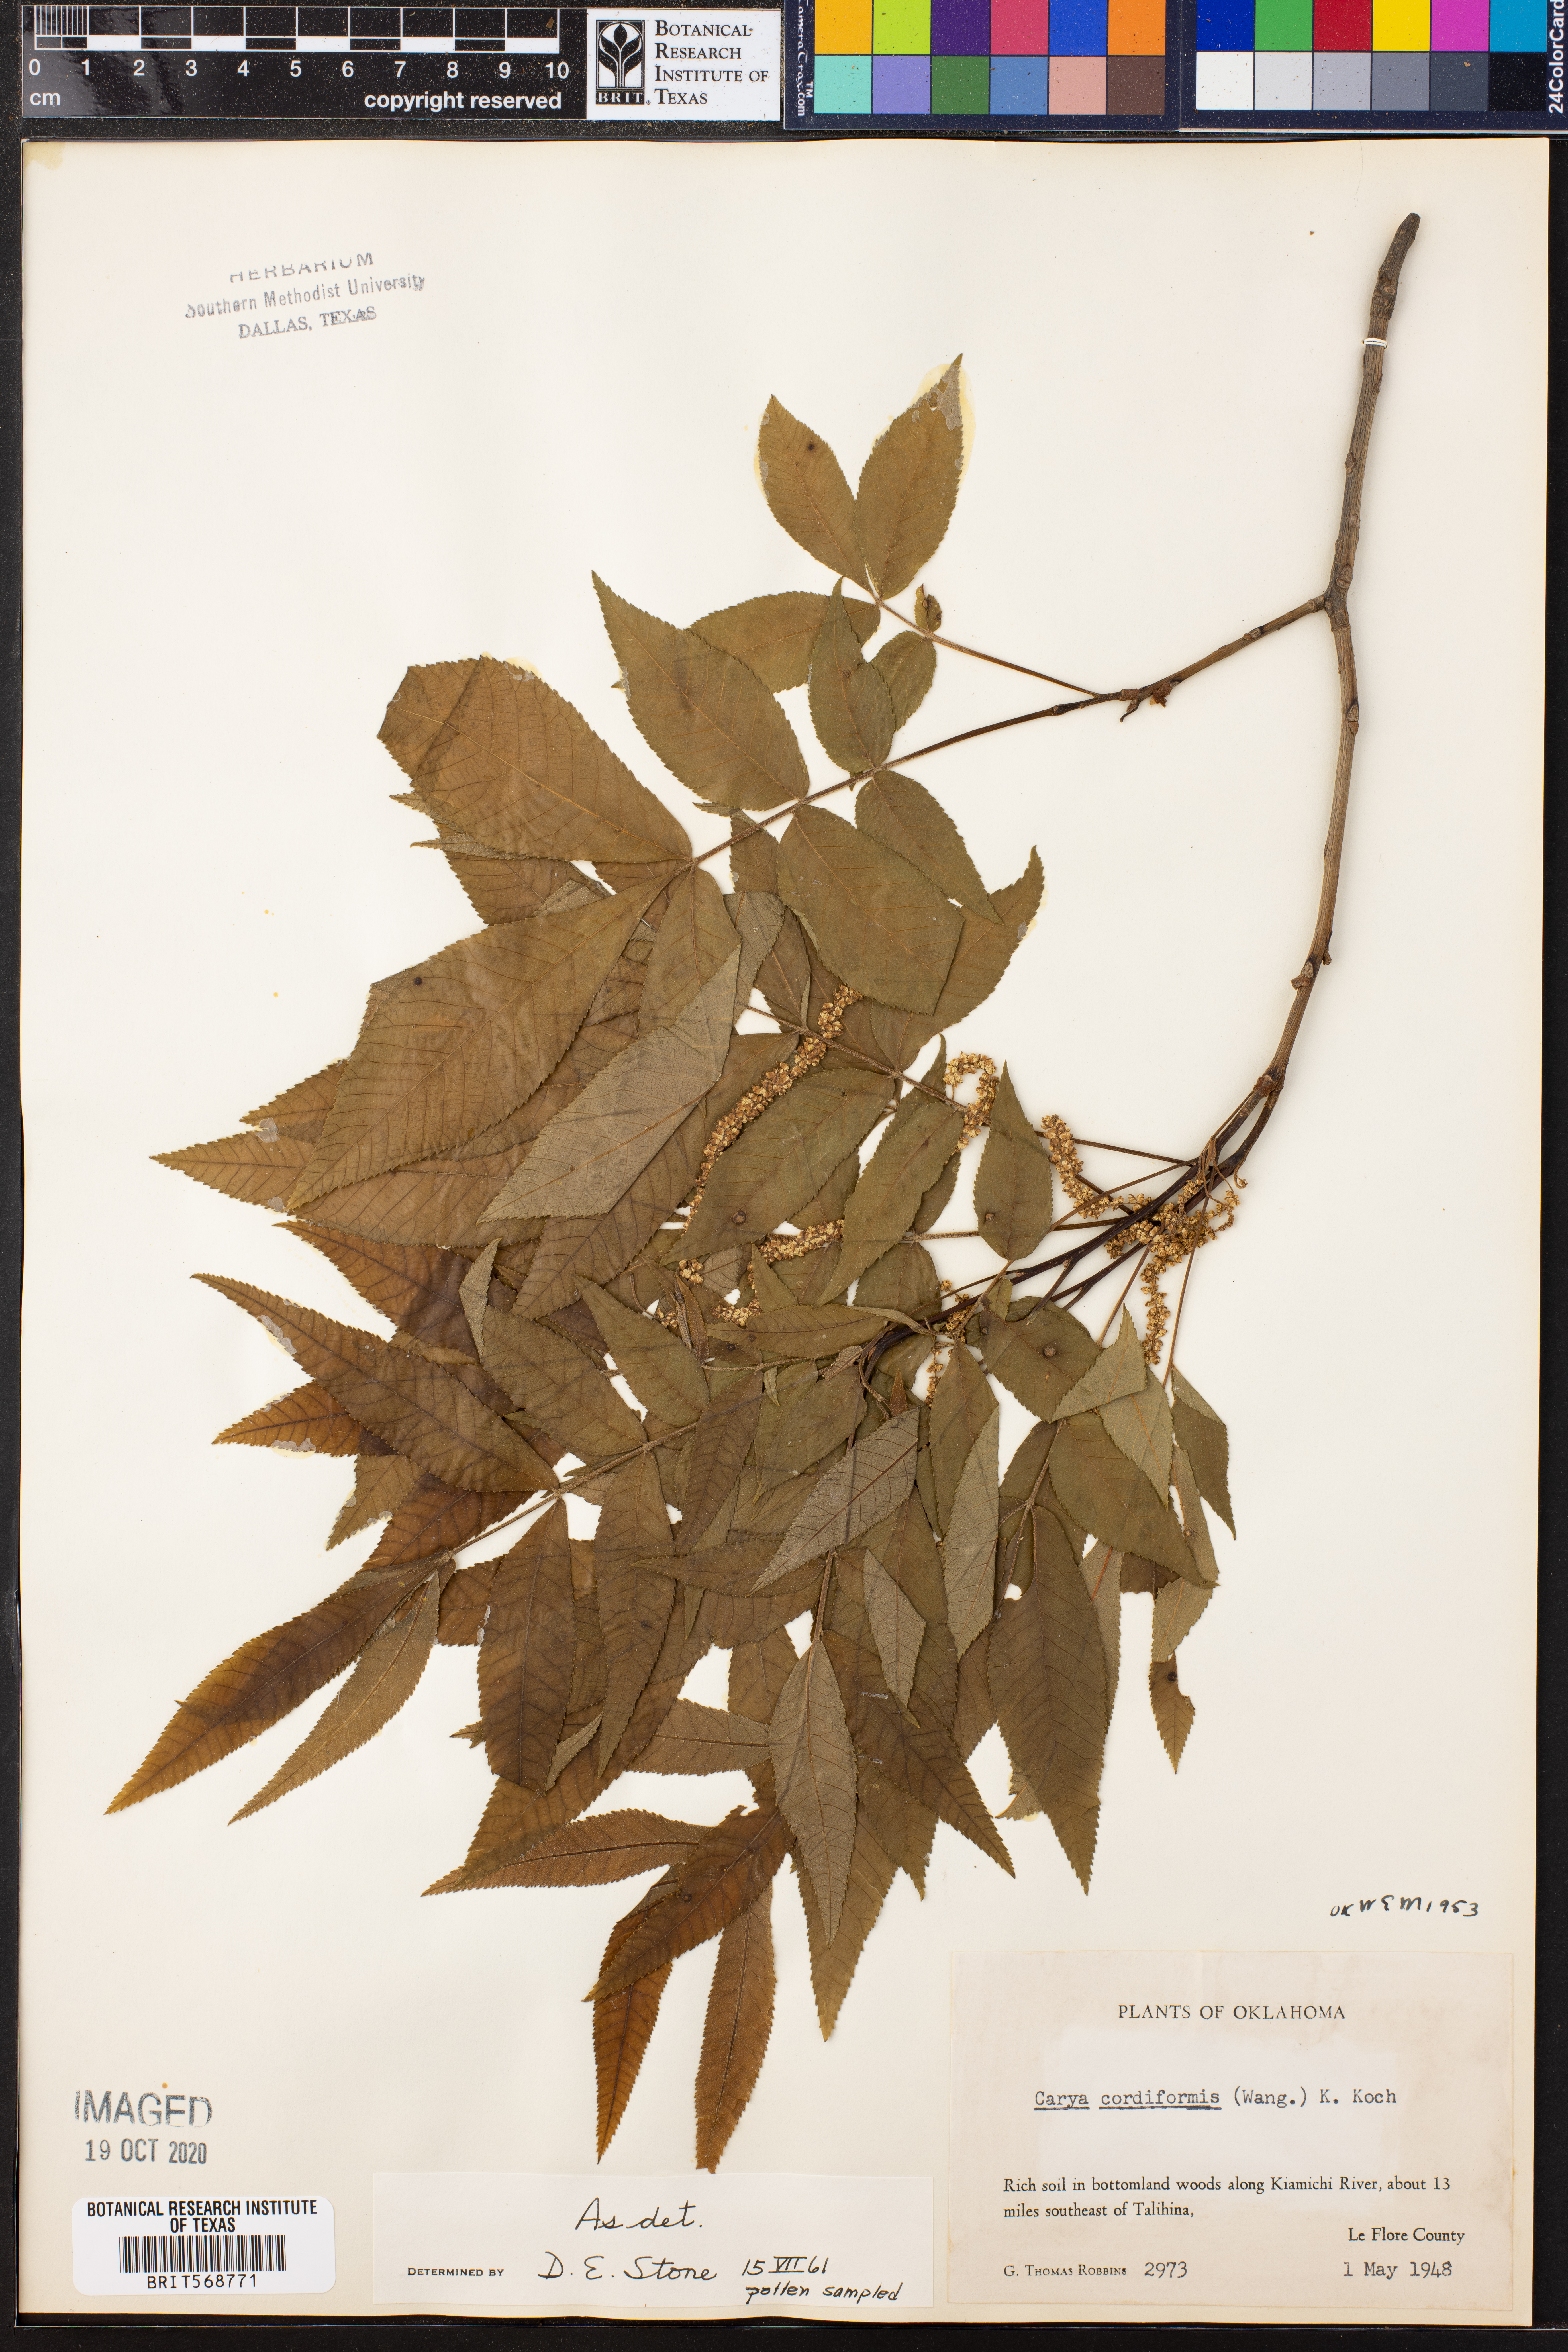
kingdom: Plantae
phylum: Tracheophyta
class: Magnoliopsida
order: Fagales
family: Juglandaceae
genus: Carya
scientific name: Carya cordiformis
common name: Bitternut hickory
